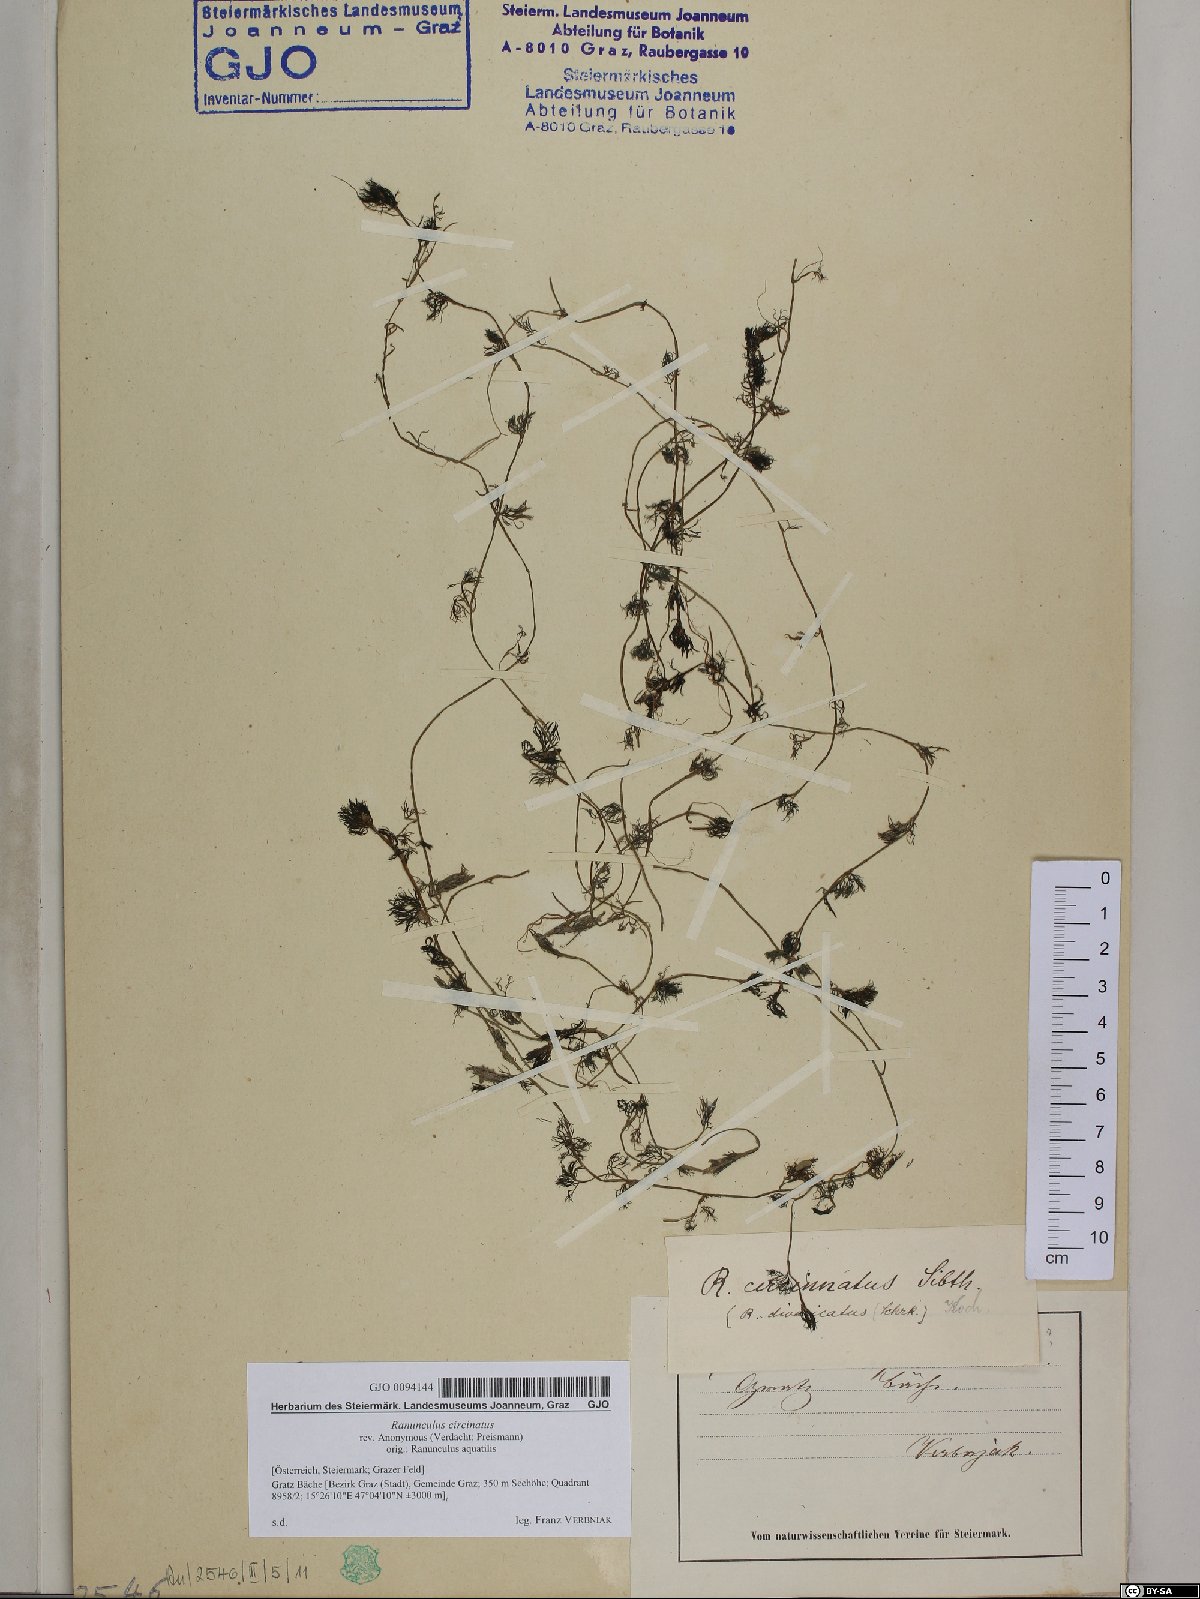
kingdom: Plantae
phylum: Tracheophyta
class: Magnoliopsida
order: Ranunculales
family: Ranunculaceae
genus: Ranunculus
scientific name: Ranunculus circinatus
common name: Fan-leaved water-crowfoot
